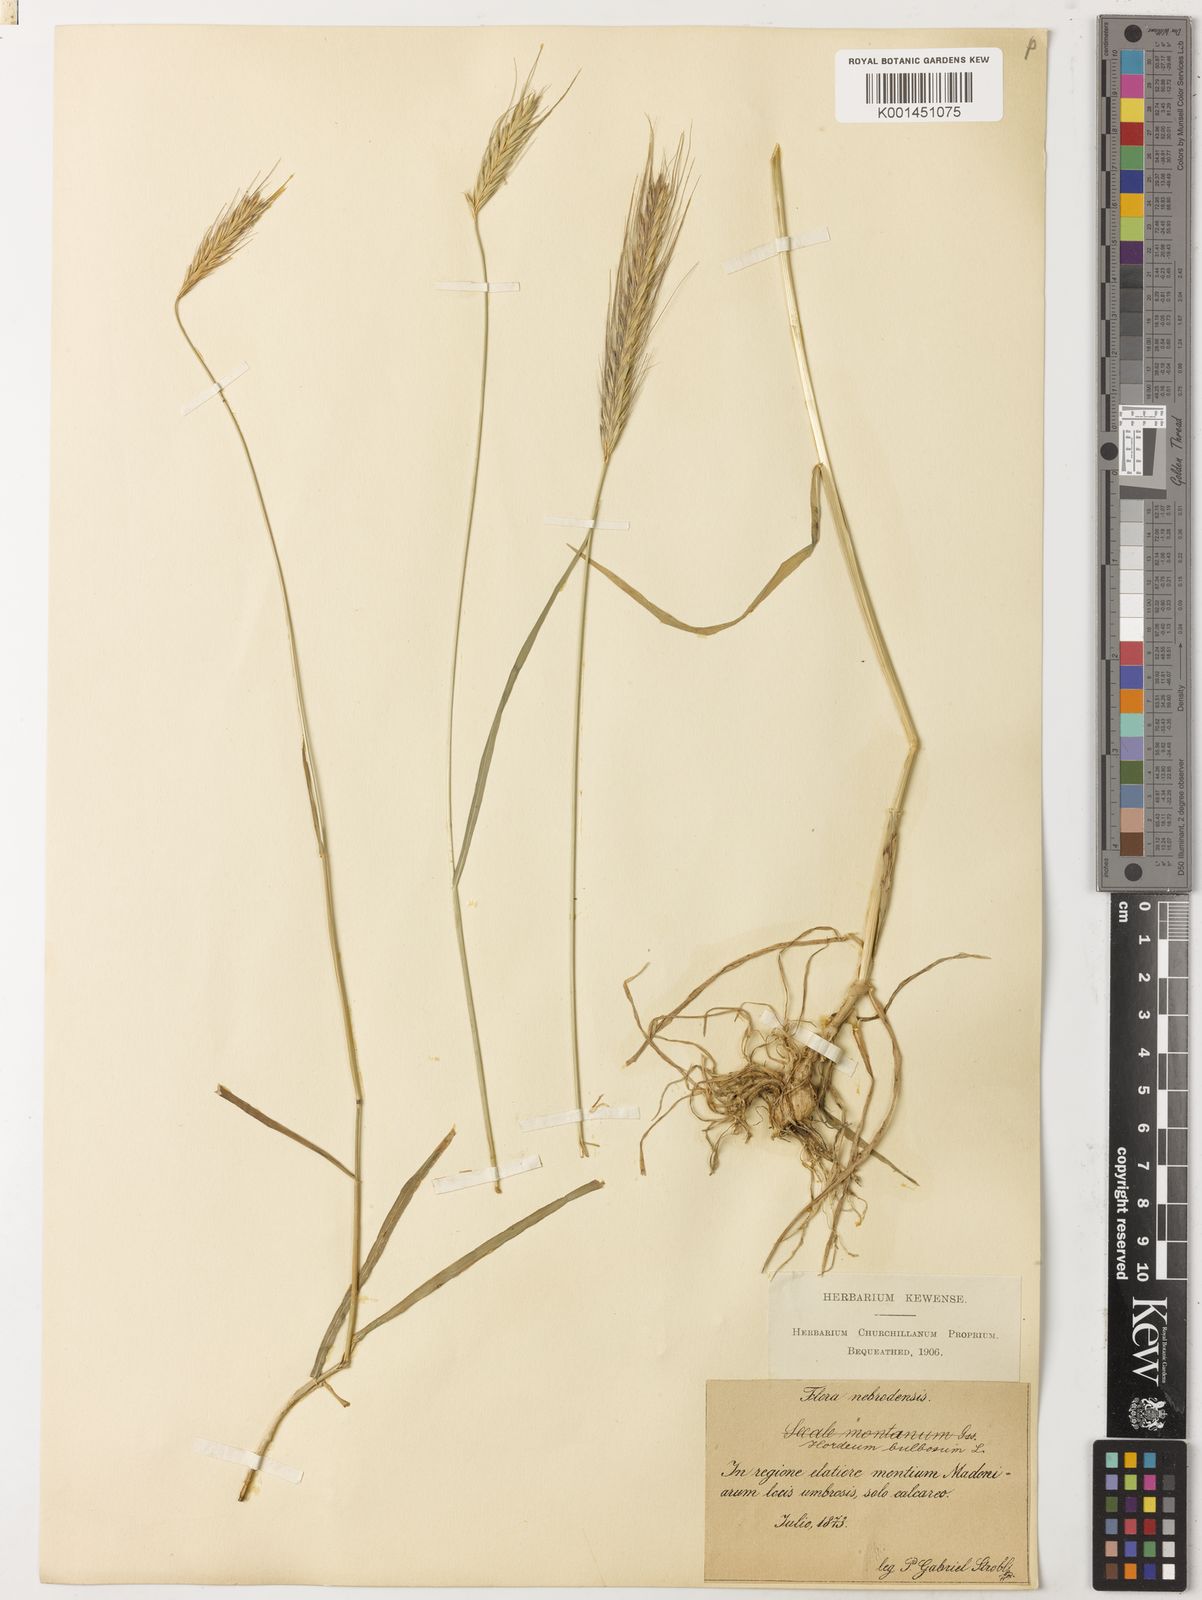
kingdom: Plantae
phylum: Tracheophyta
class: Liliopsida
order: Poales
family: Poaceae
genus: Hordeum
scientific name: Hordeum bulbosum
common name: Bulbous barley
